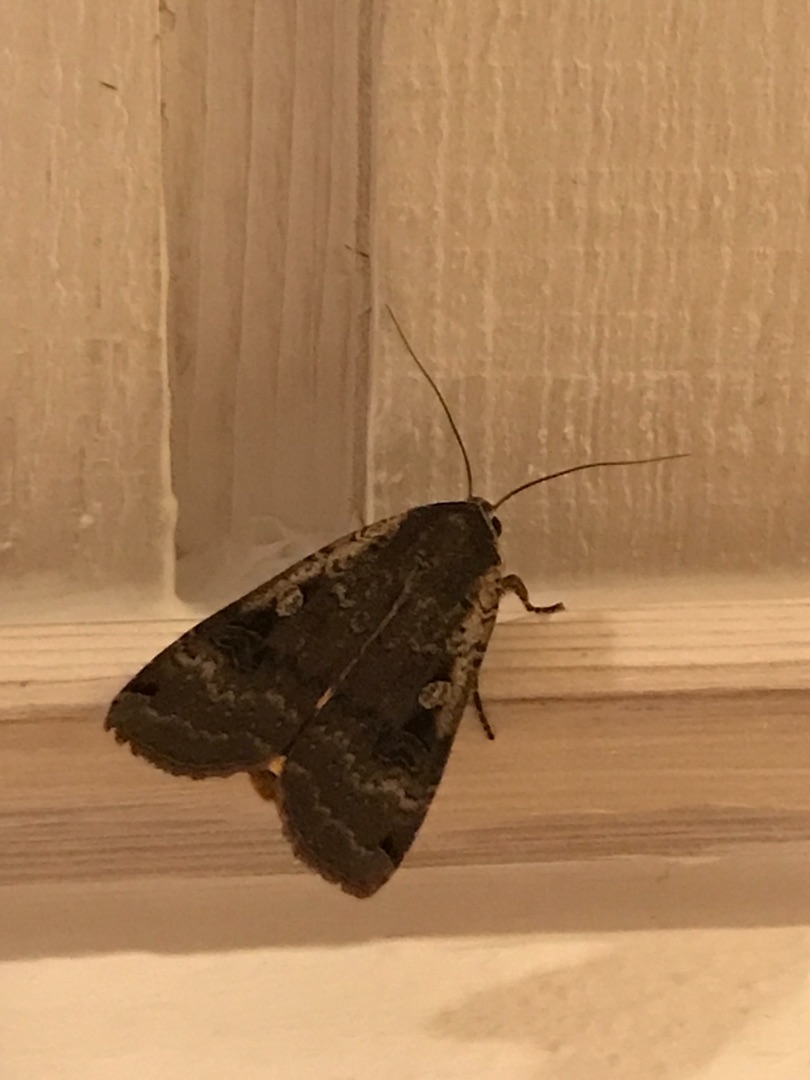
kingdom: Animalia
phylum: Arthropoda
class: Insecta
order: Lepidoptera
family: Noctuidae
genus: Noctua
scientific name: Noctua pronuba
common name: Stor smutugle
